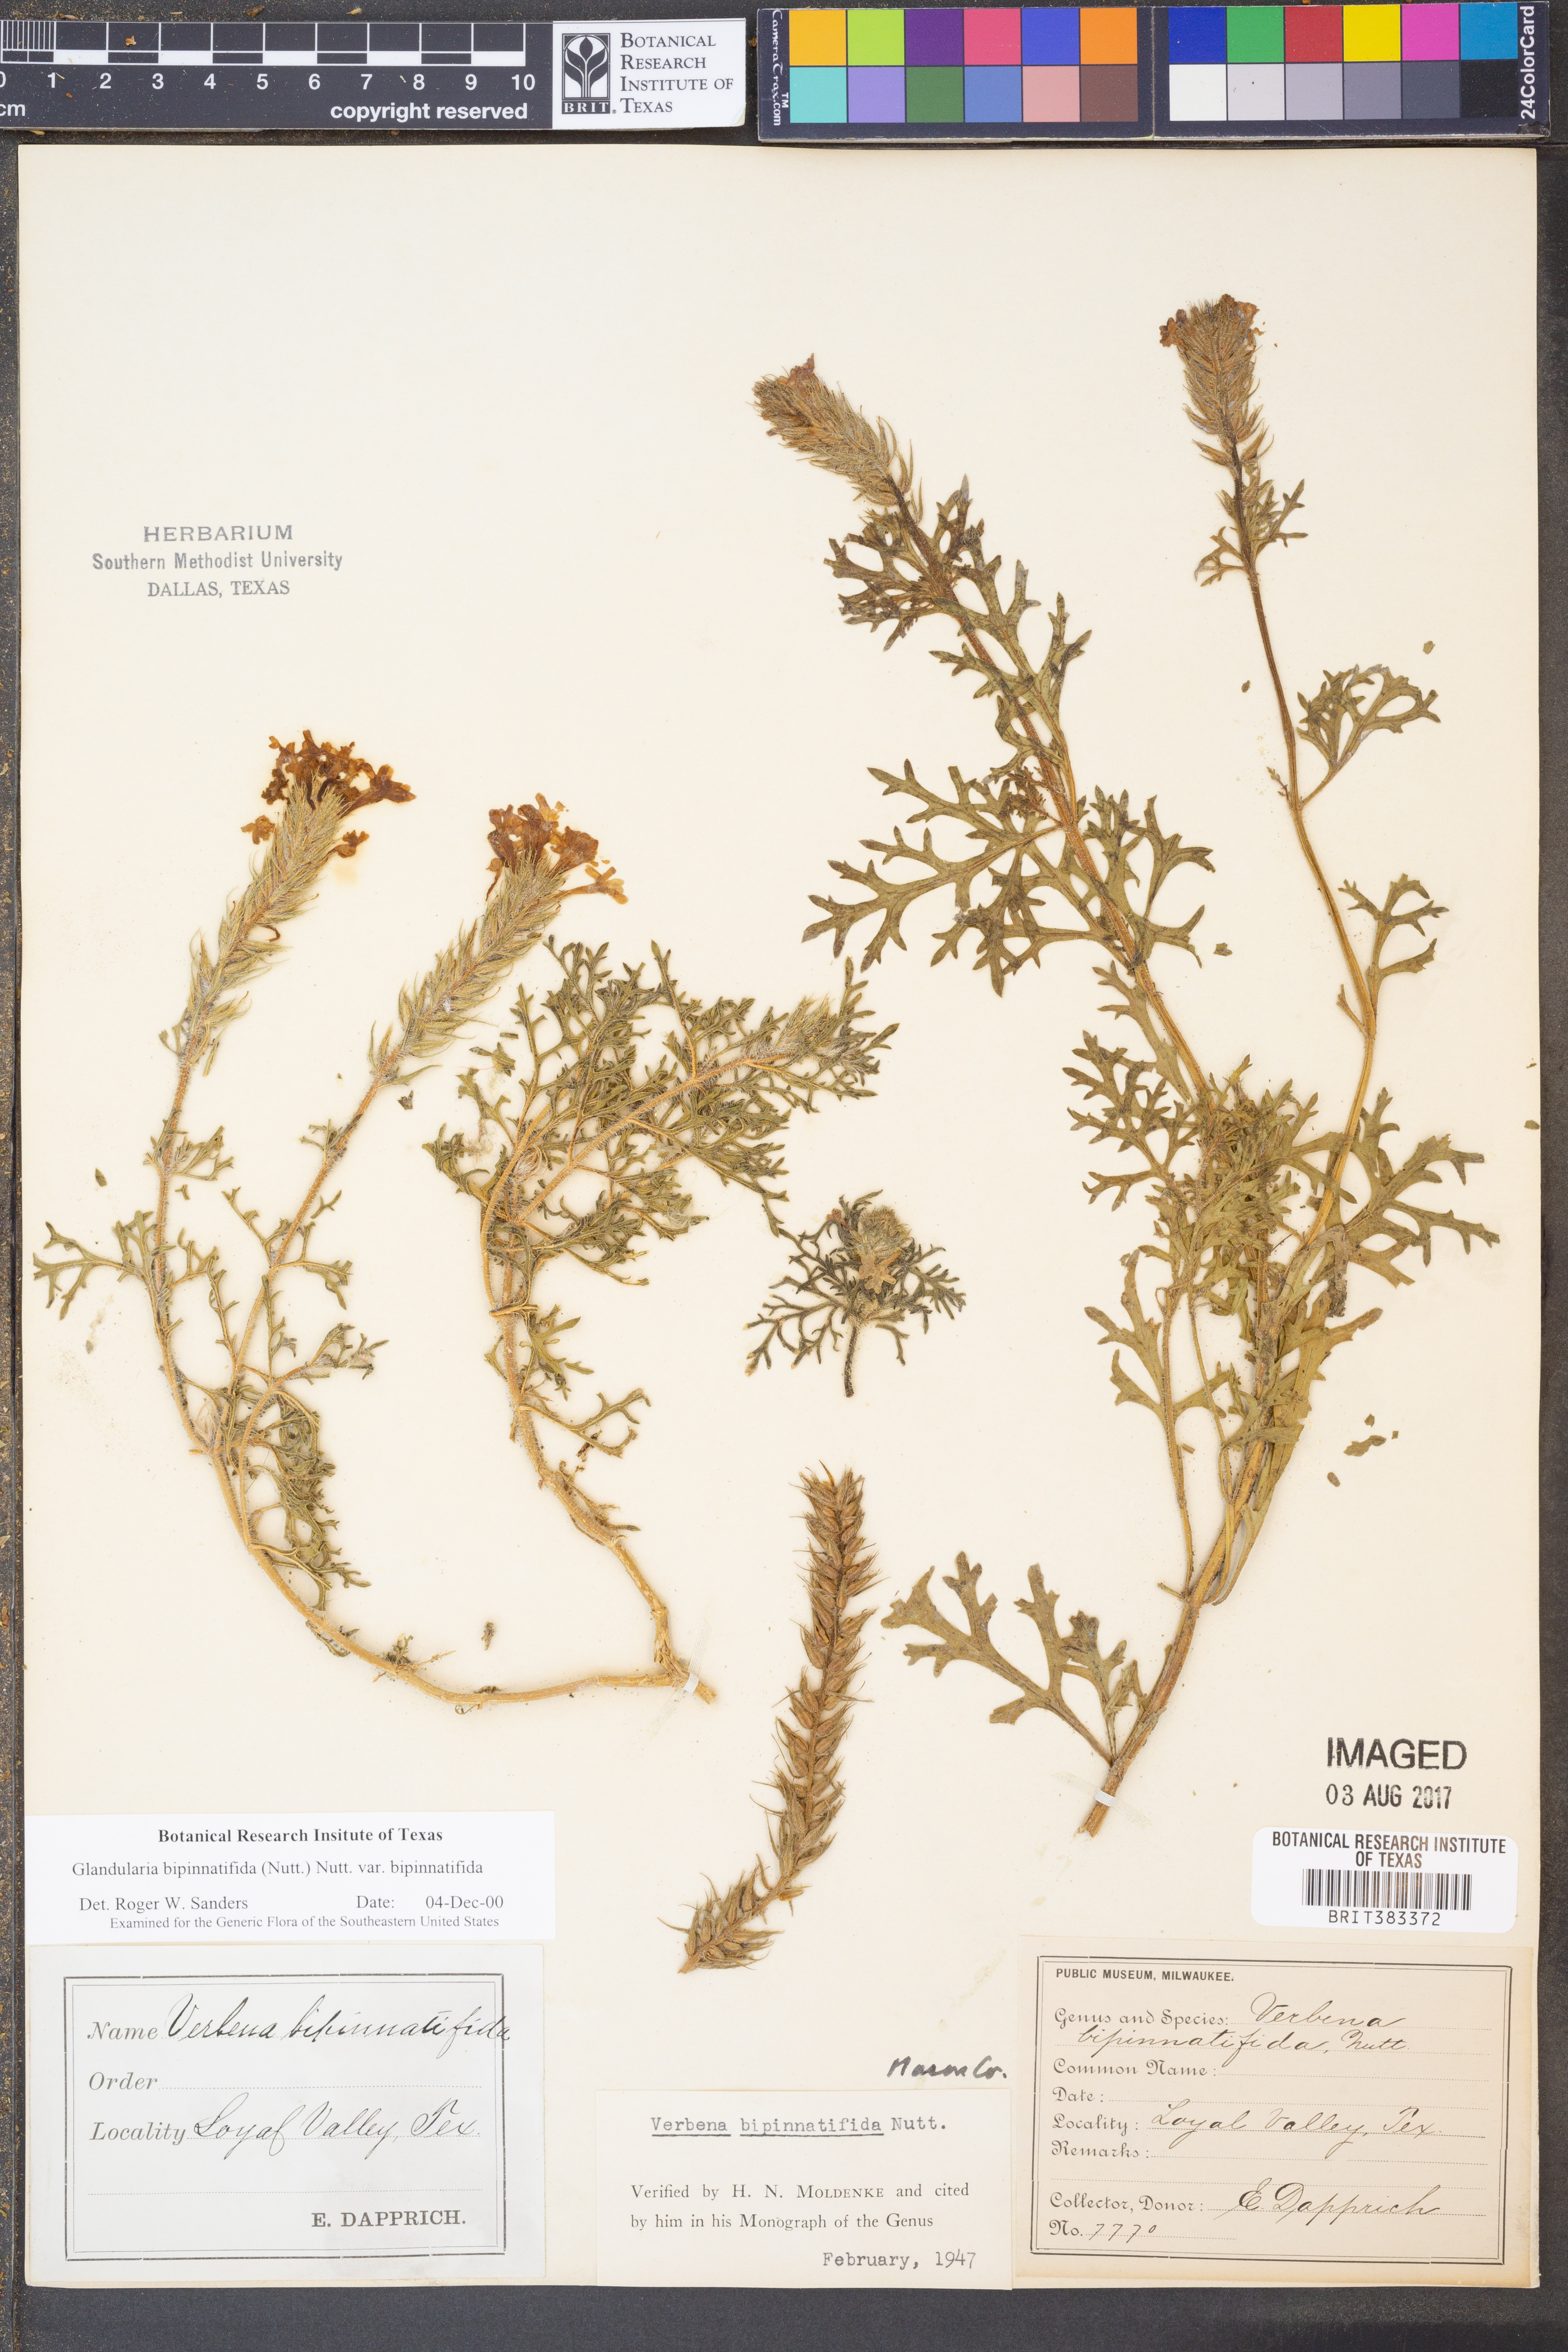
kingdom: Plantae
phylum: Tracheophyta
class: Magnoliopsida
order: Lamiales
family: Verbenaceae
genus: Verbena
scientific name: Verbena bipinnatifida
